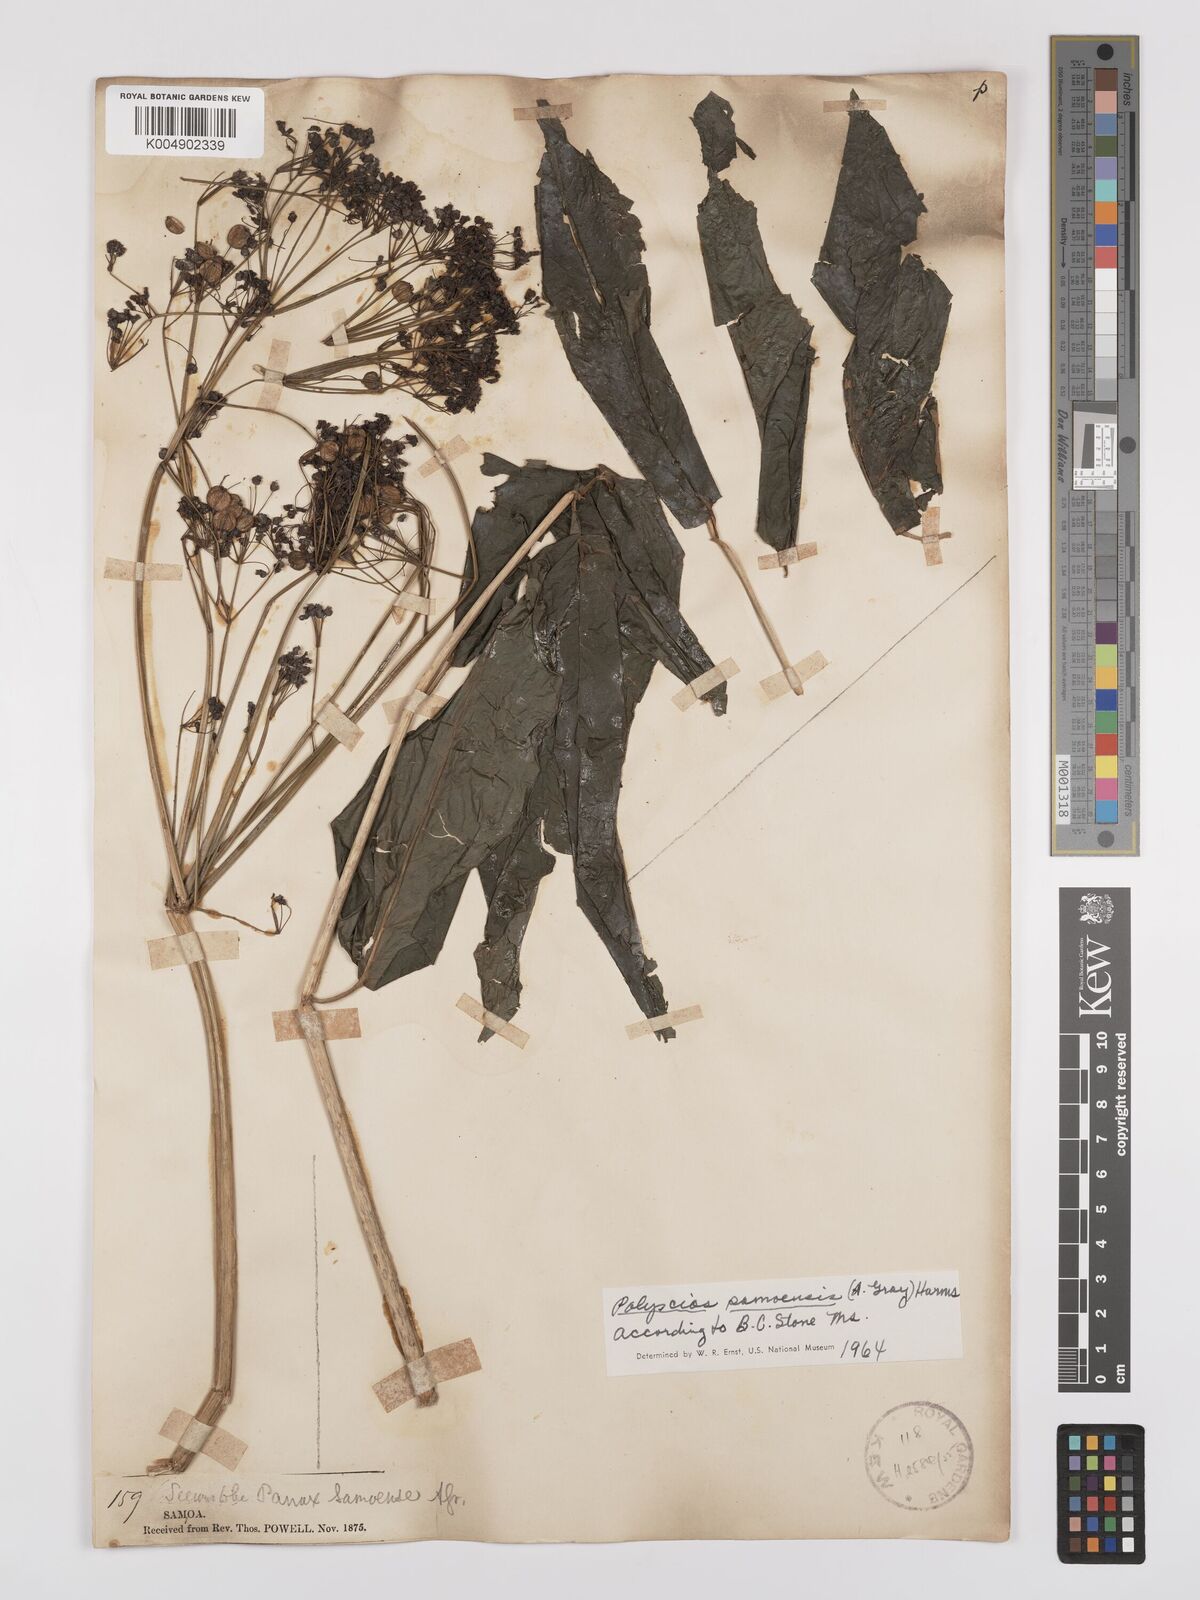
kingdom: Plantae
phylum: Tracheophyta
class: Magnoliopsida
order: Apiales
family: Araliaceae
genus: Polyscias
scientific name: Polyscias samoensis
